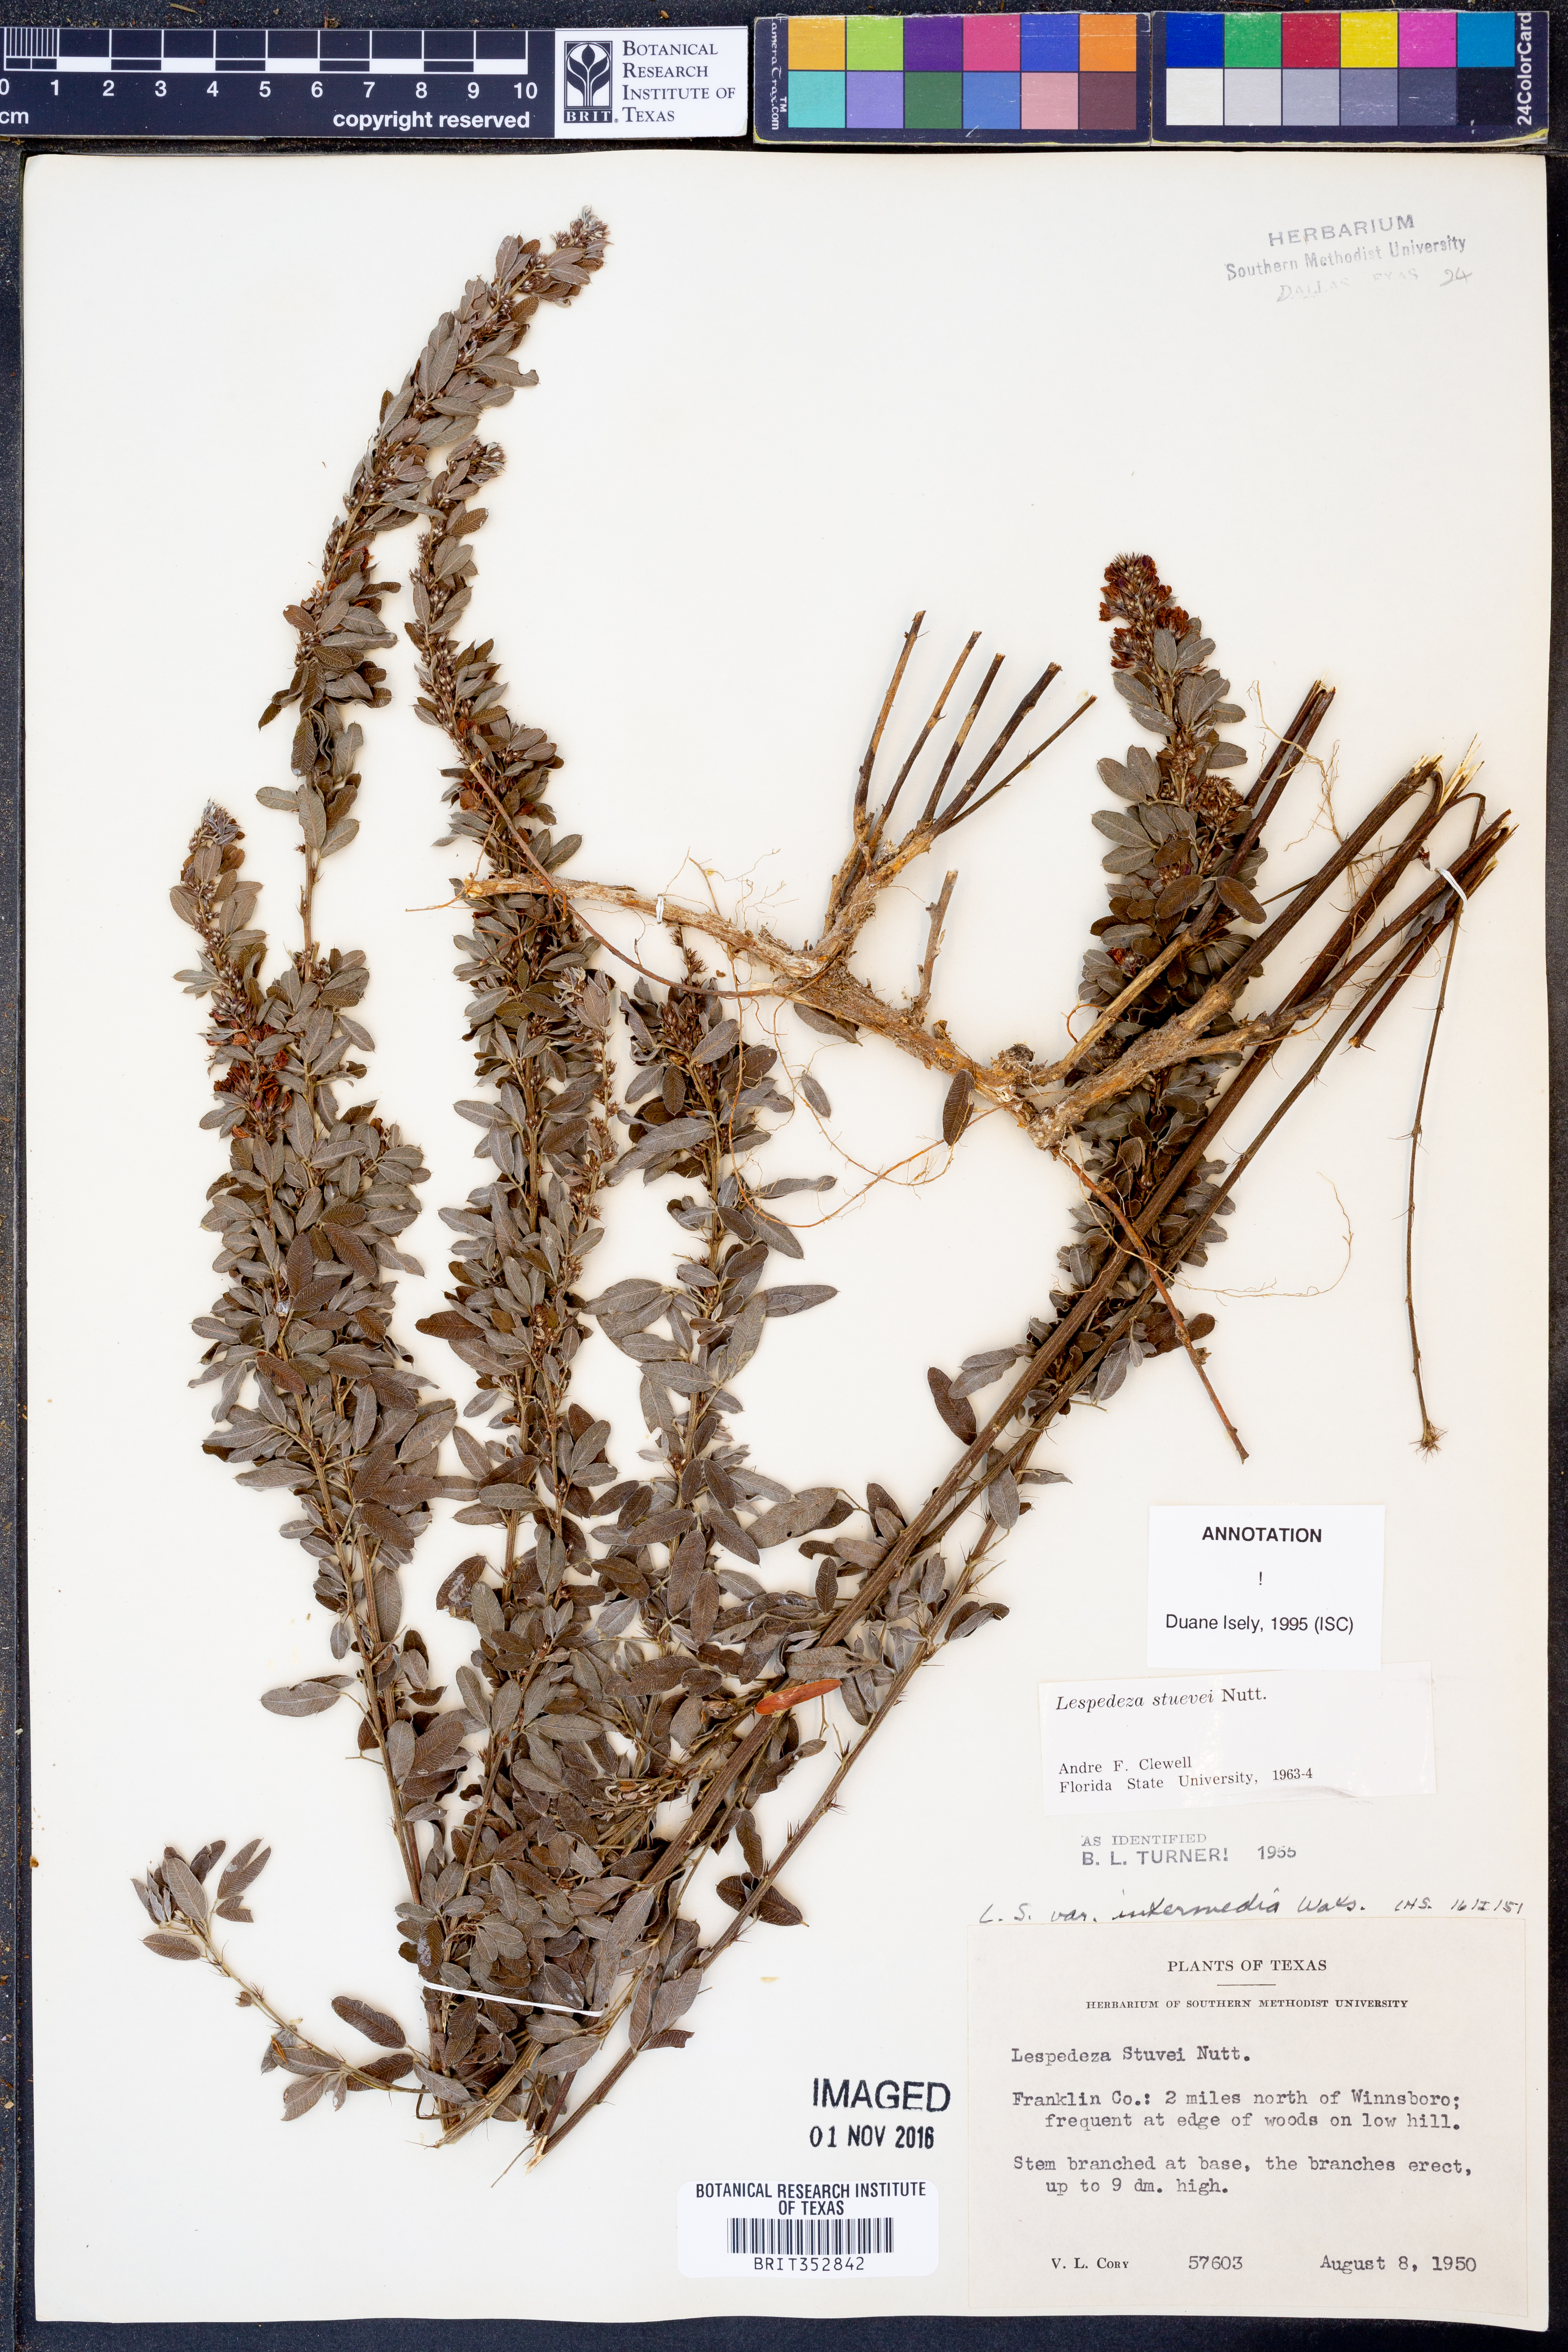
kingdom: Plantae
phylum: Tracheophyta
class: Magnoliopsida
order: Fabales
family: Fabaceae
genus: Lespedeza
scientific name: Lespedeza stuevei
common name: Tall bush-clover
